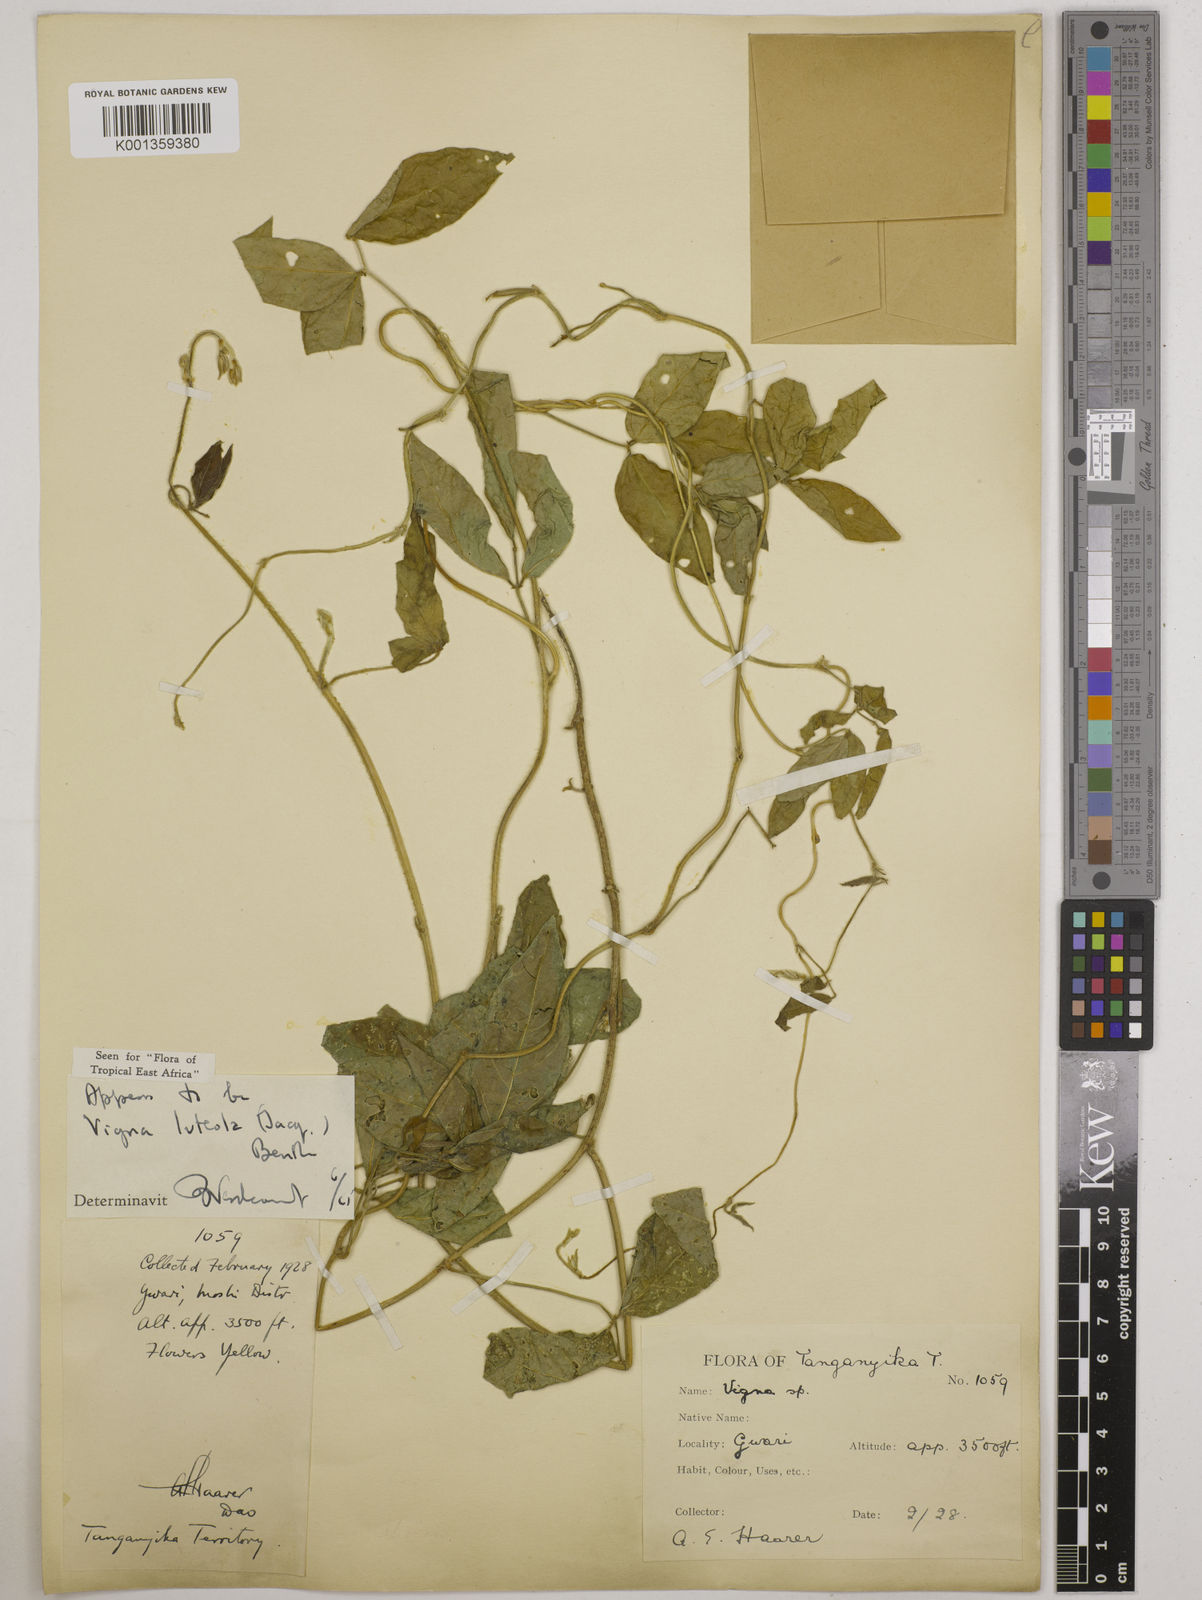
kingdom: Plantae
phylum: Tracheophyta
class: Magnoliopsida
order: Fabales
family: Fabaceae
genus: Vigna
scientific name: Vigna luteola
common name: Hairypod cowpea
